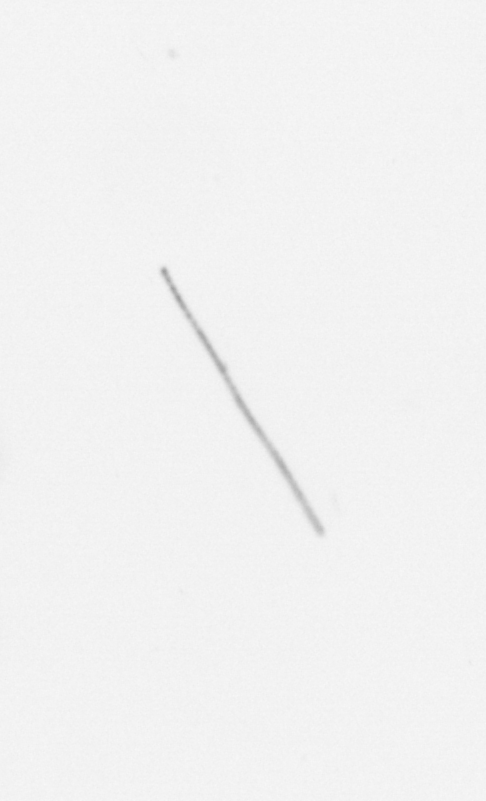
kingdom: Chromista
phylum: Ochrophyta
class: Bacillariophyceae
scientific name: Bacillariophyceae
